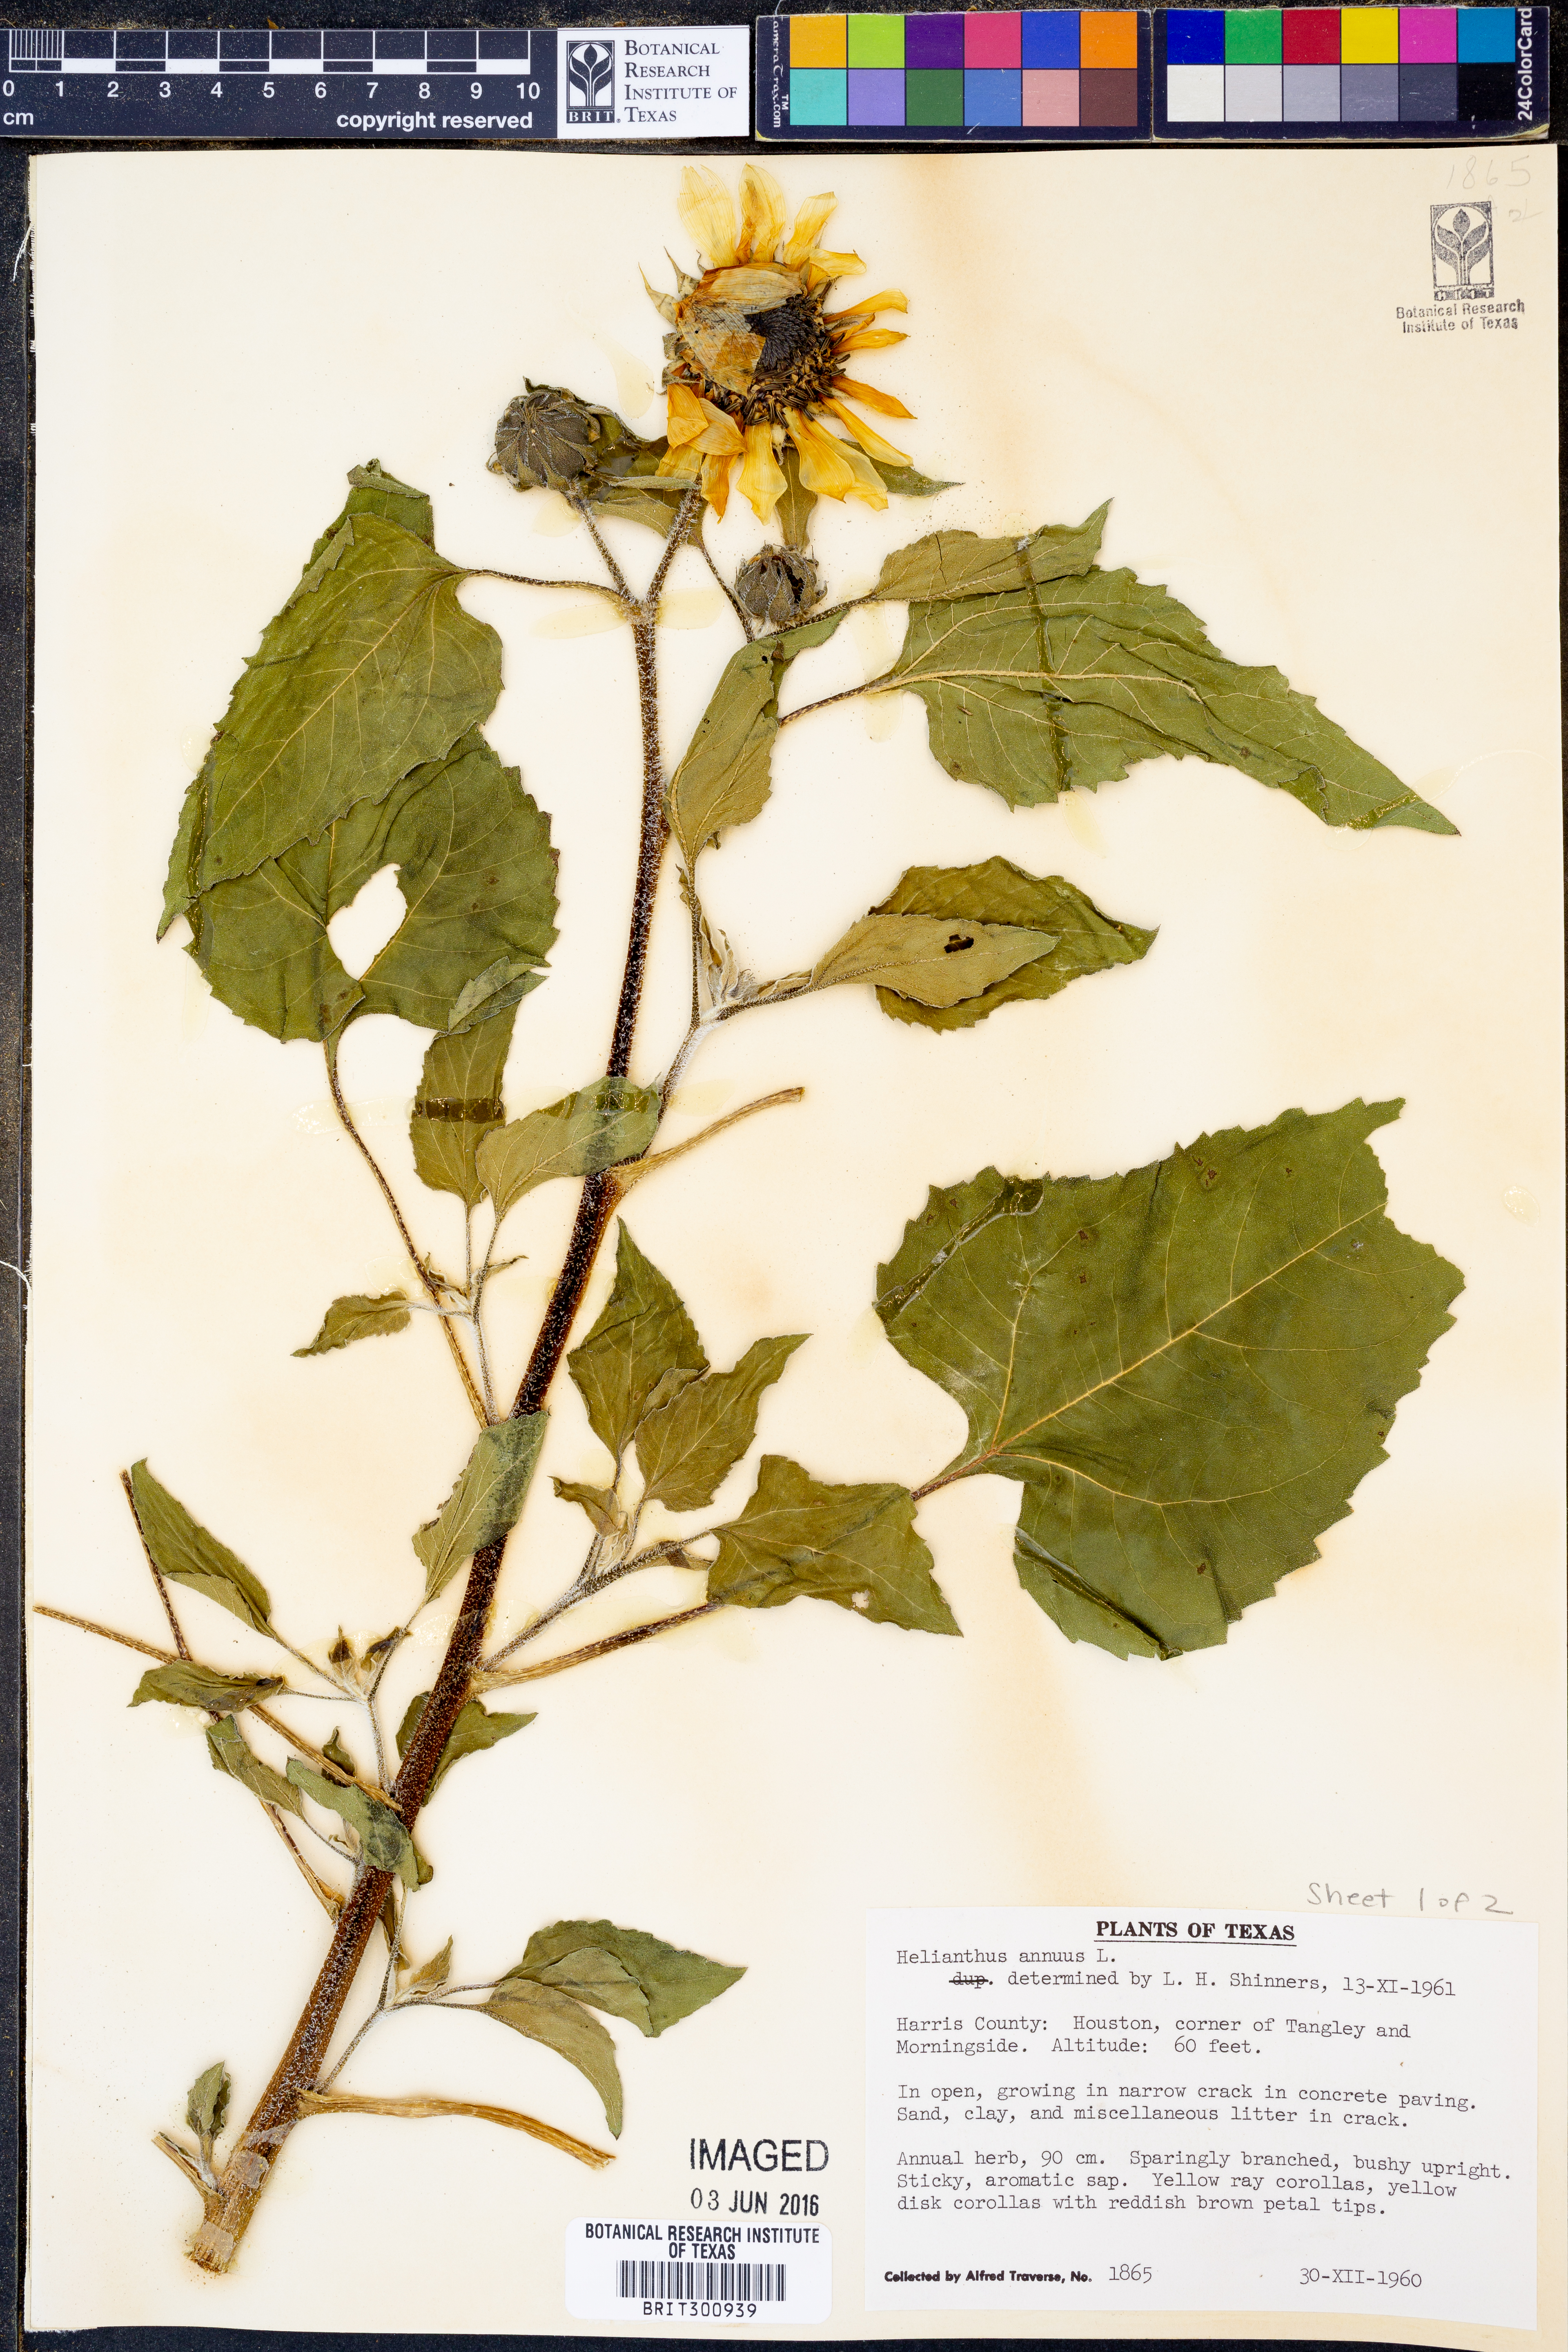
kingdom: Plantae
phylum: Tracheophyta
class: Magnoliopsida
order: Asterales
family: Asteraceae
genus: Helianthus
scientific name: Helianthus annuus
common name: Sunflower
